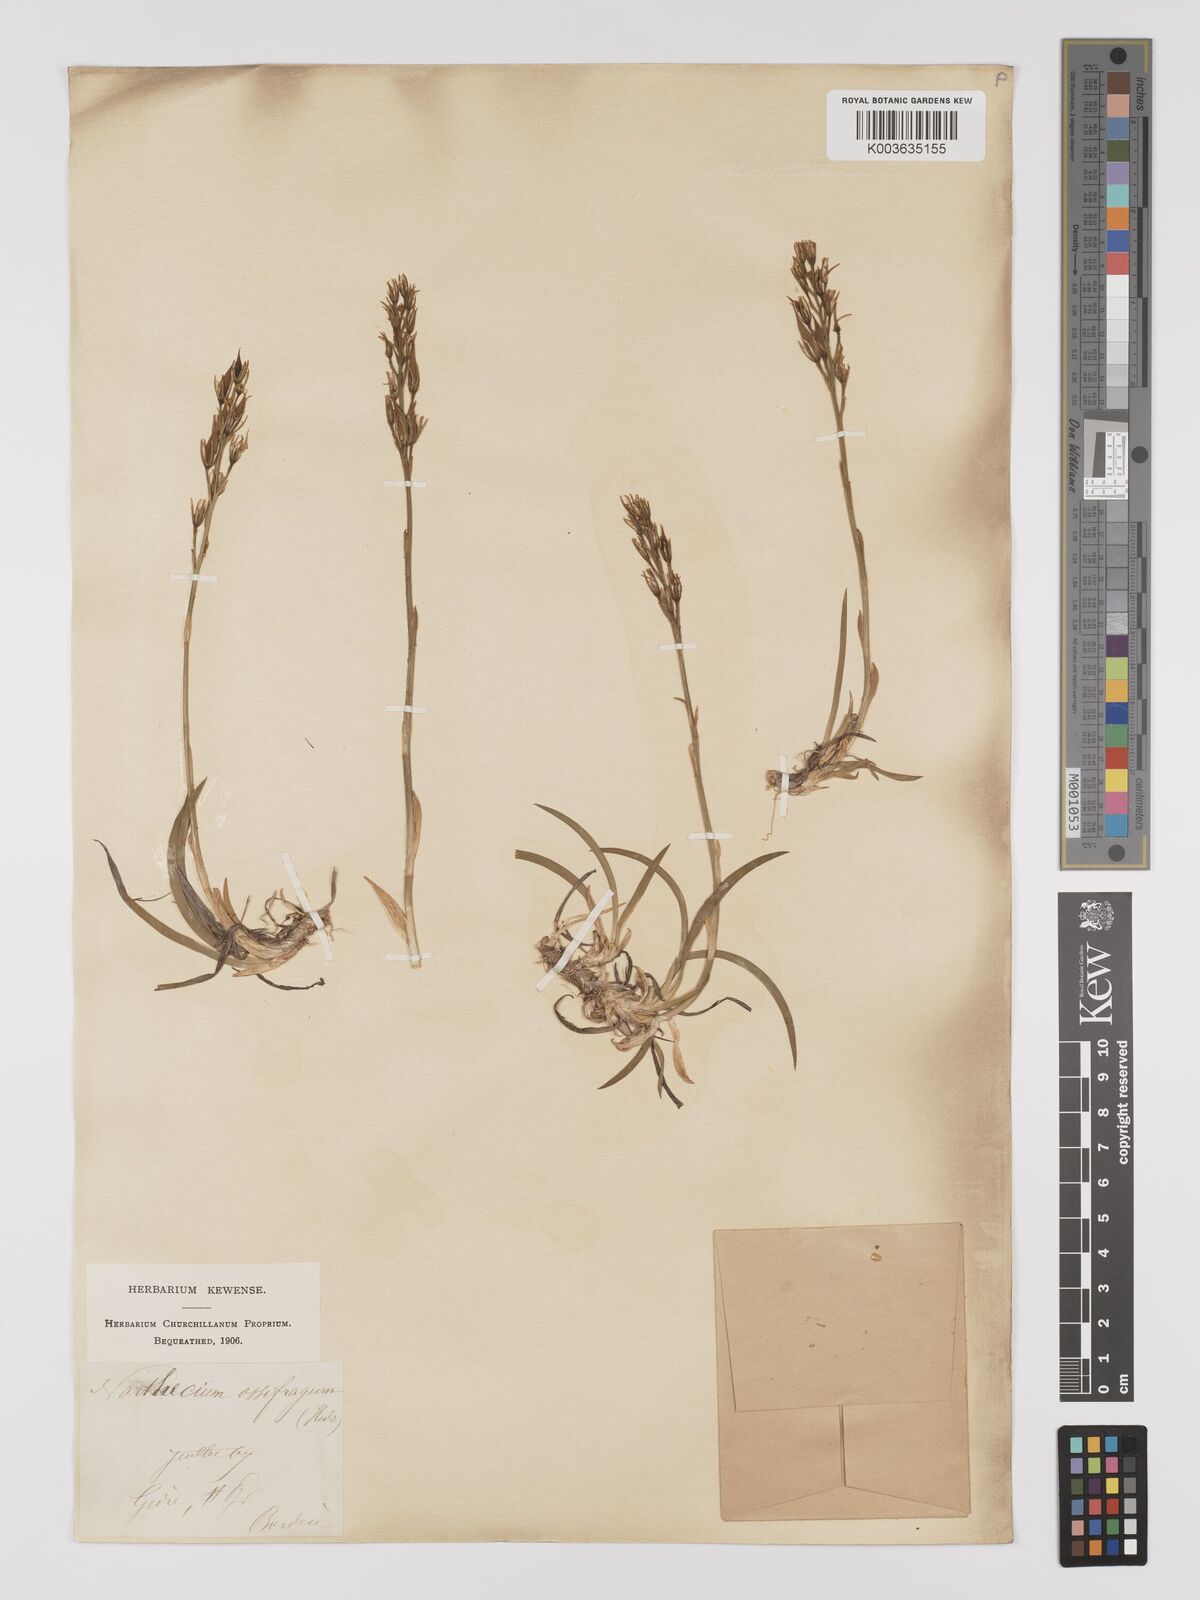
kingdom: Plantae
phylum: Tracheophyta
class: Liliopsida
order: Dioscoreales
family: Nartheciaceae
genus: Narthecium
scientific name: Narthecium ossifragum
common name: Bog asphodel
